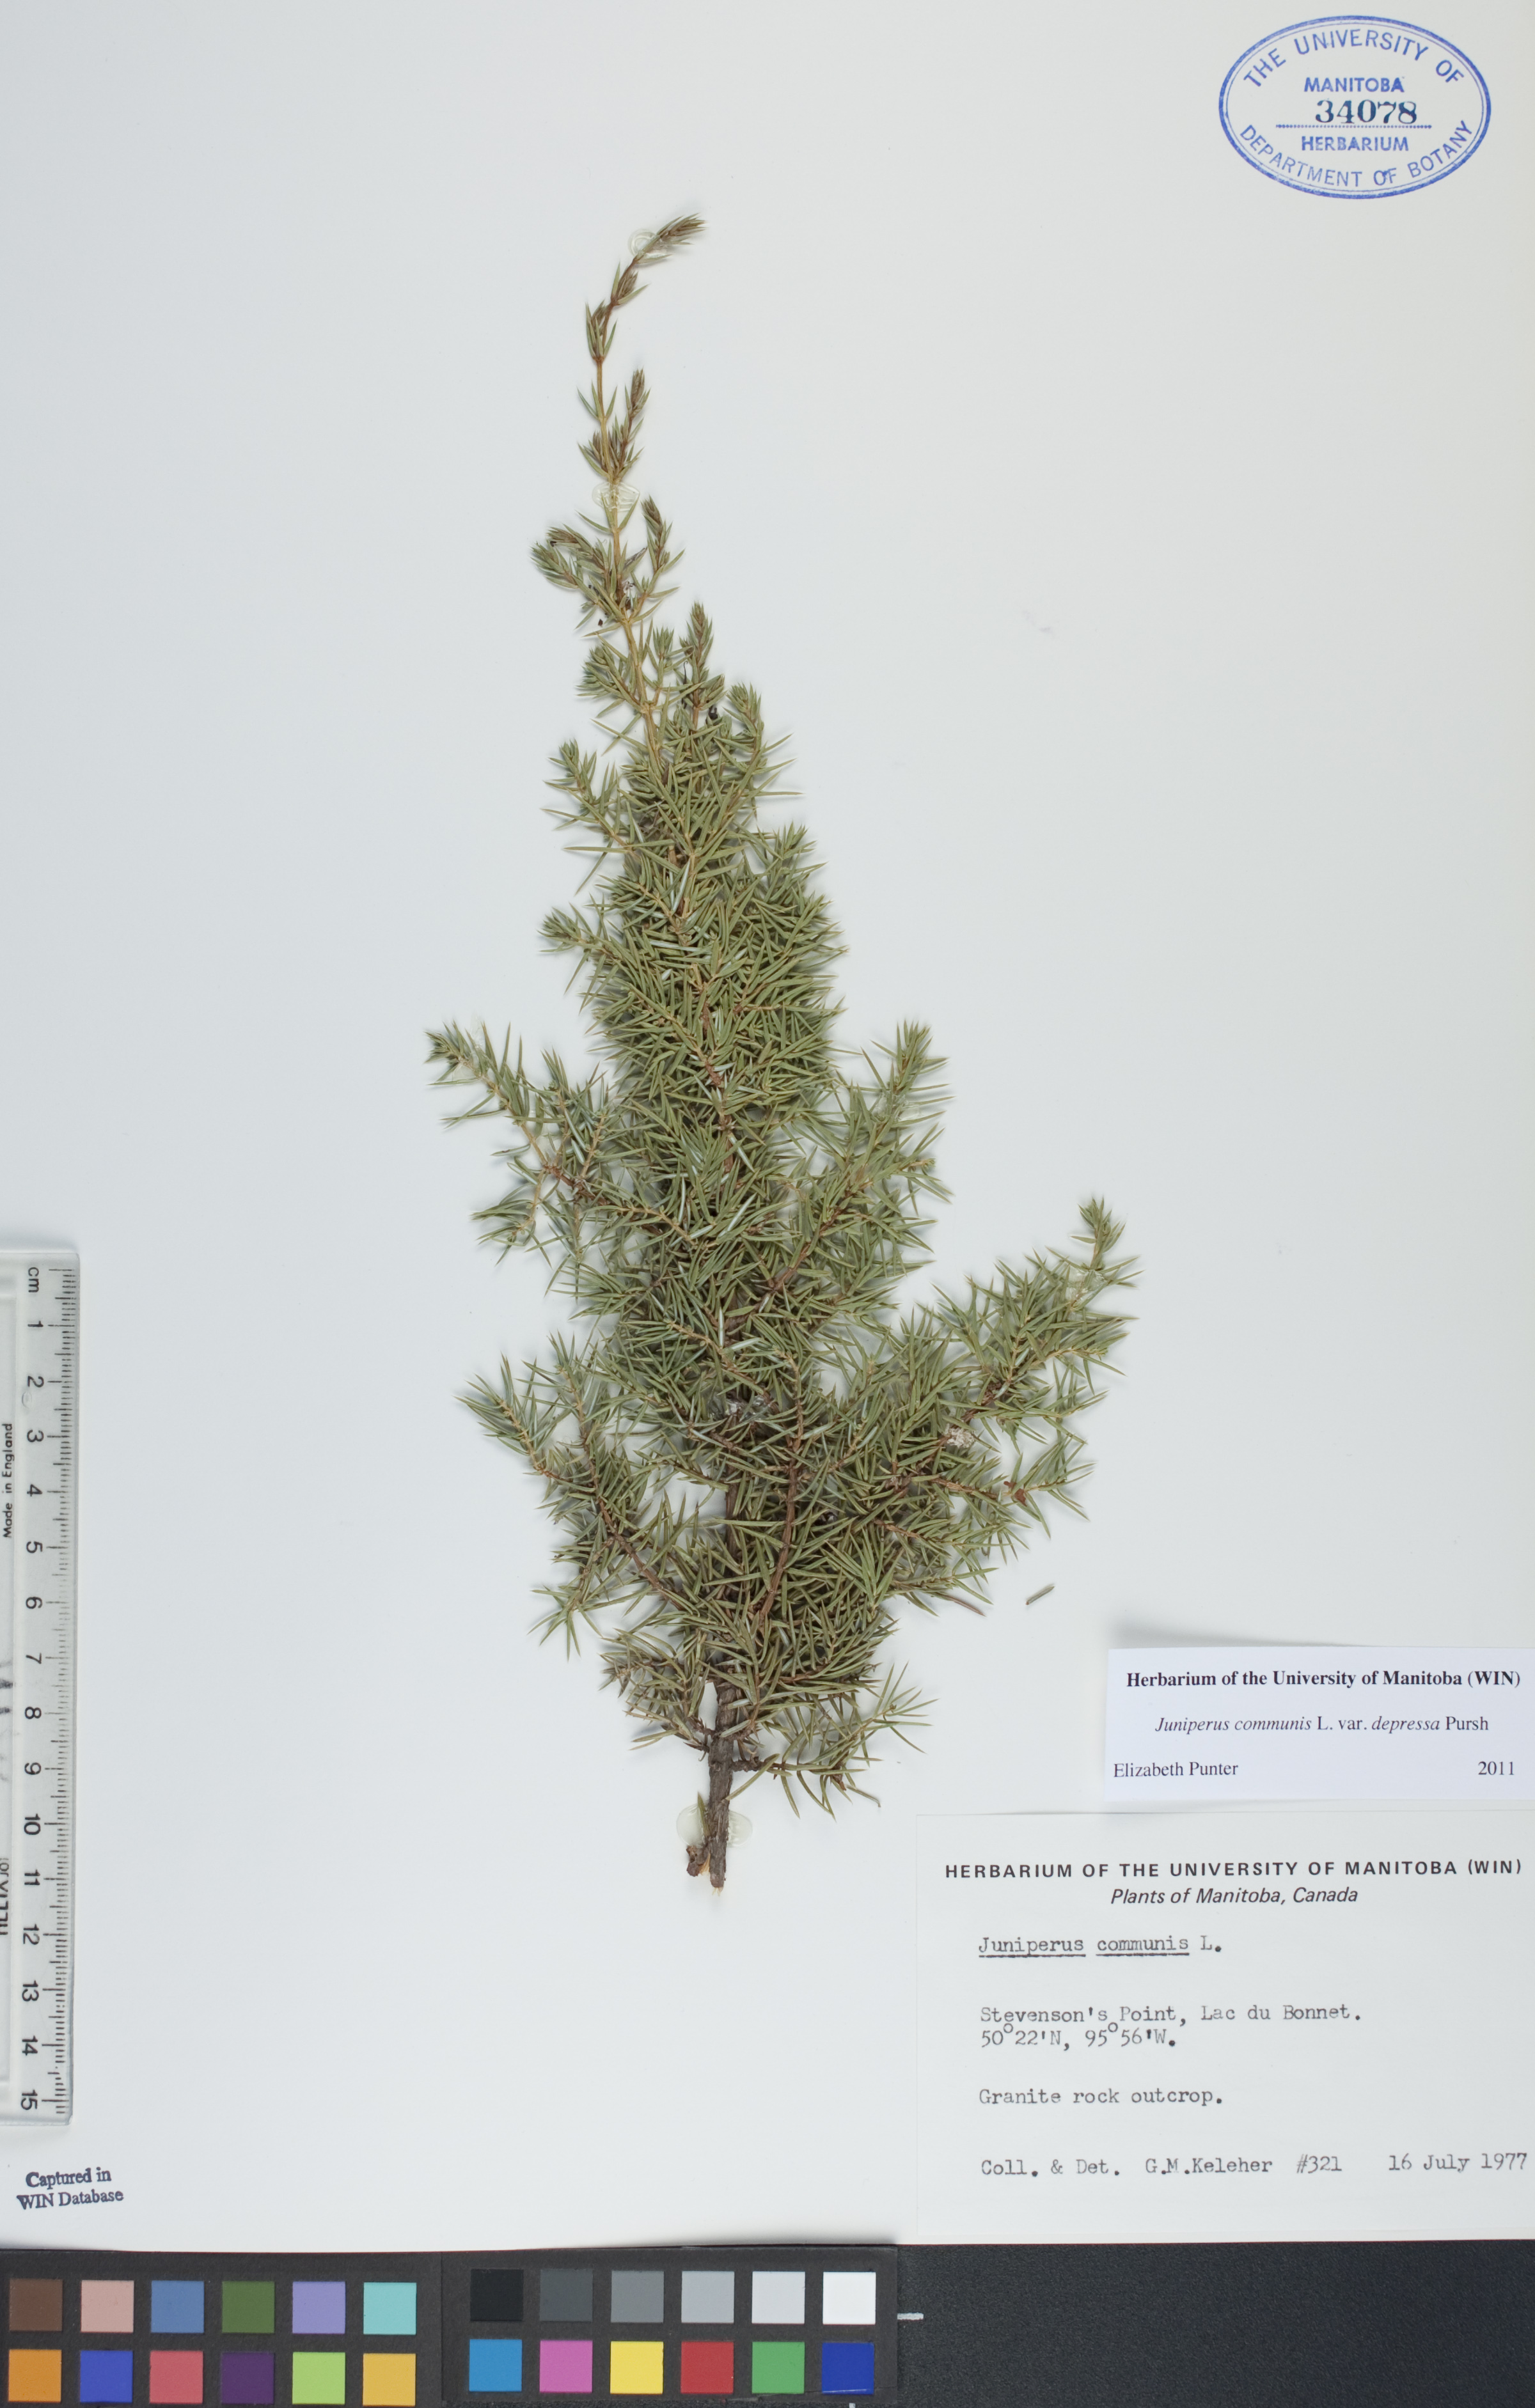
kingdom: Plantae
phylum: Tracheophyta
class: Pinopsida
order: Pinales
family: Cupressaceae
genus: Juniperus
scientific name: Juniperus communis
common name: Common juniper
